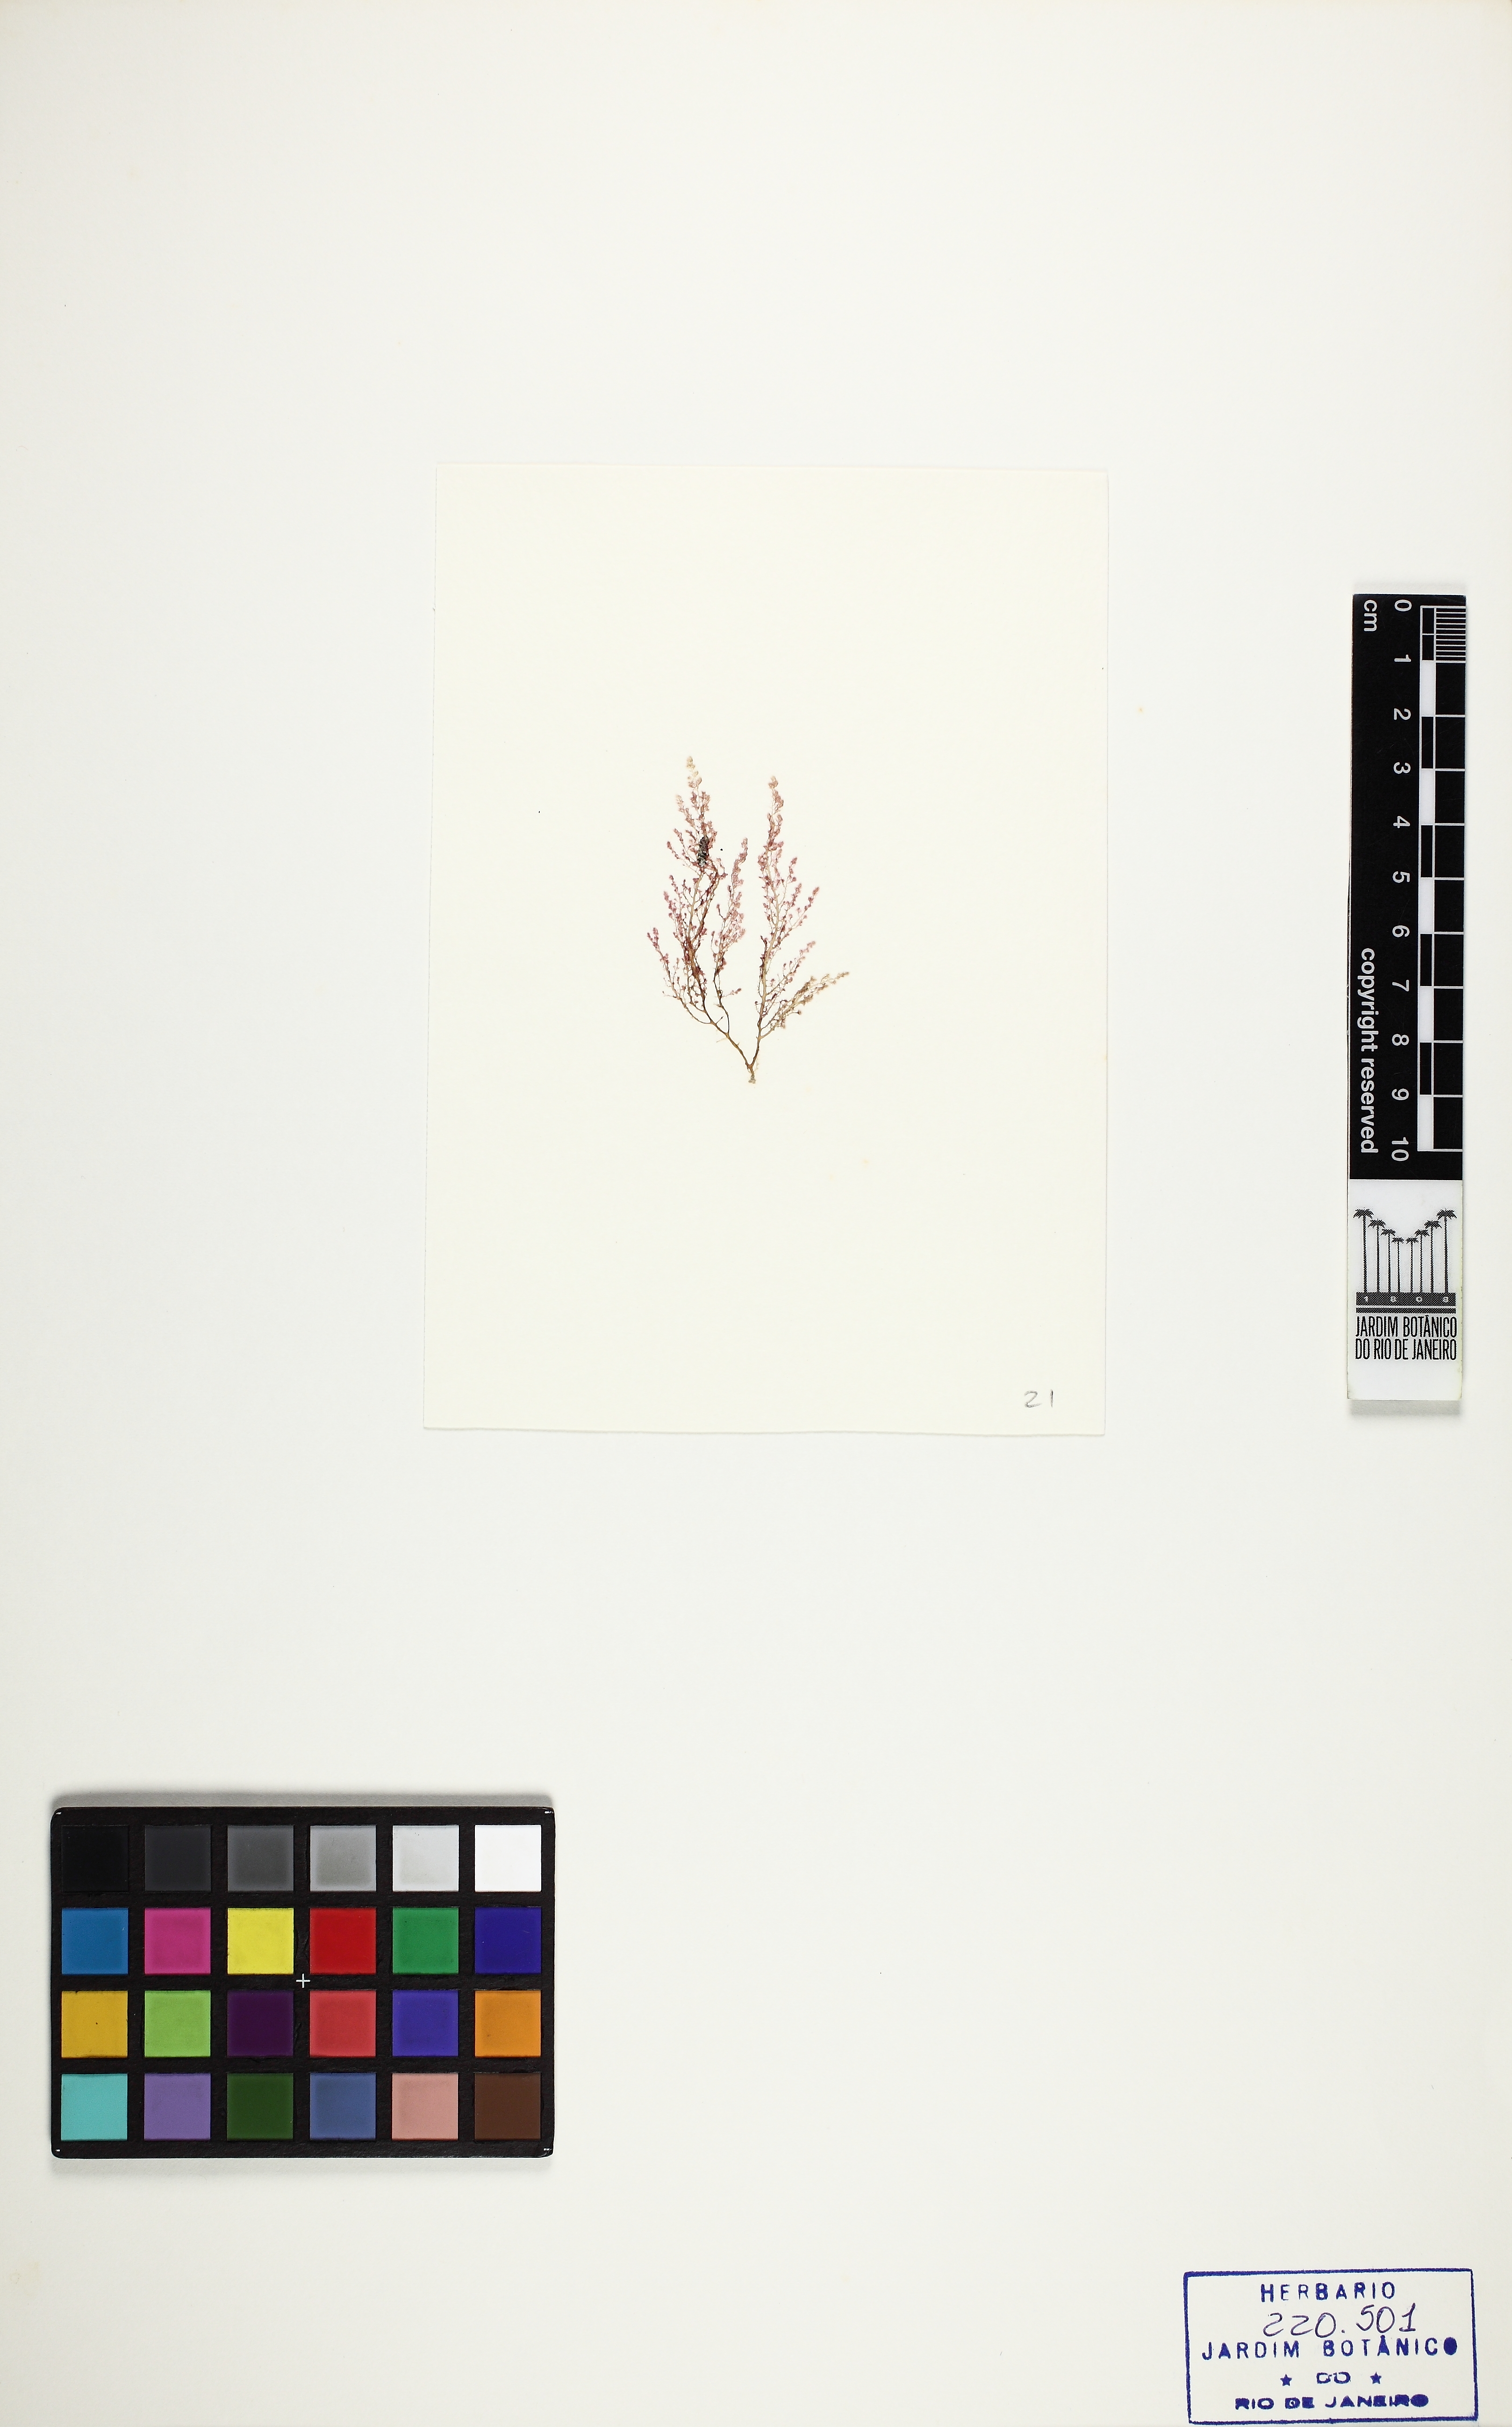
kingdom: Plantae
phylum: Rhodophyta
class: Florideophyceae
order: Ceramiales
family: Dasyaceae
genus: Dasya
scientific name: Dasya brasiliensis
